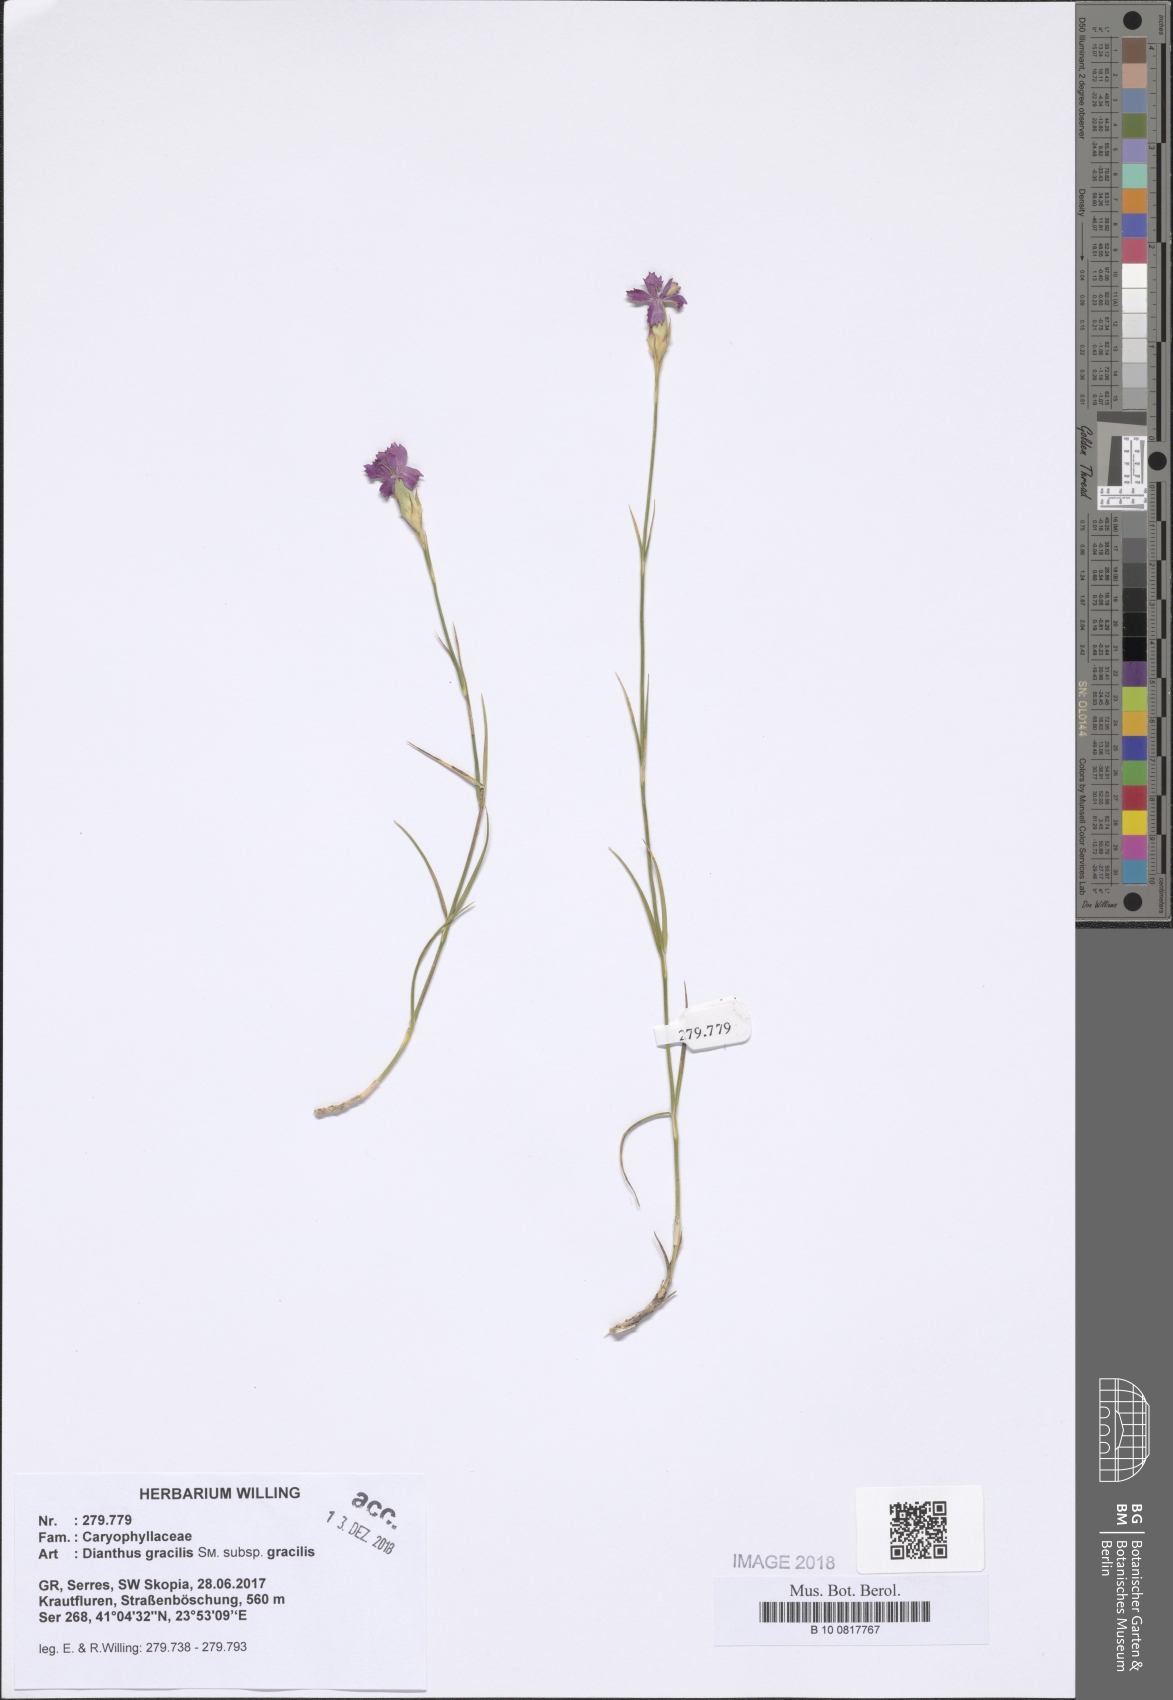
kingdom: Plantae
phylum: Tracheophyta
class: Magnoliopsida
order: Caryophyllales
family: Caryophyllaceae
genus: Dianthus
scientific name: Dianthus gracilis
